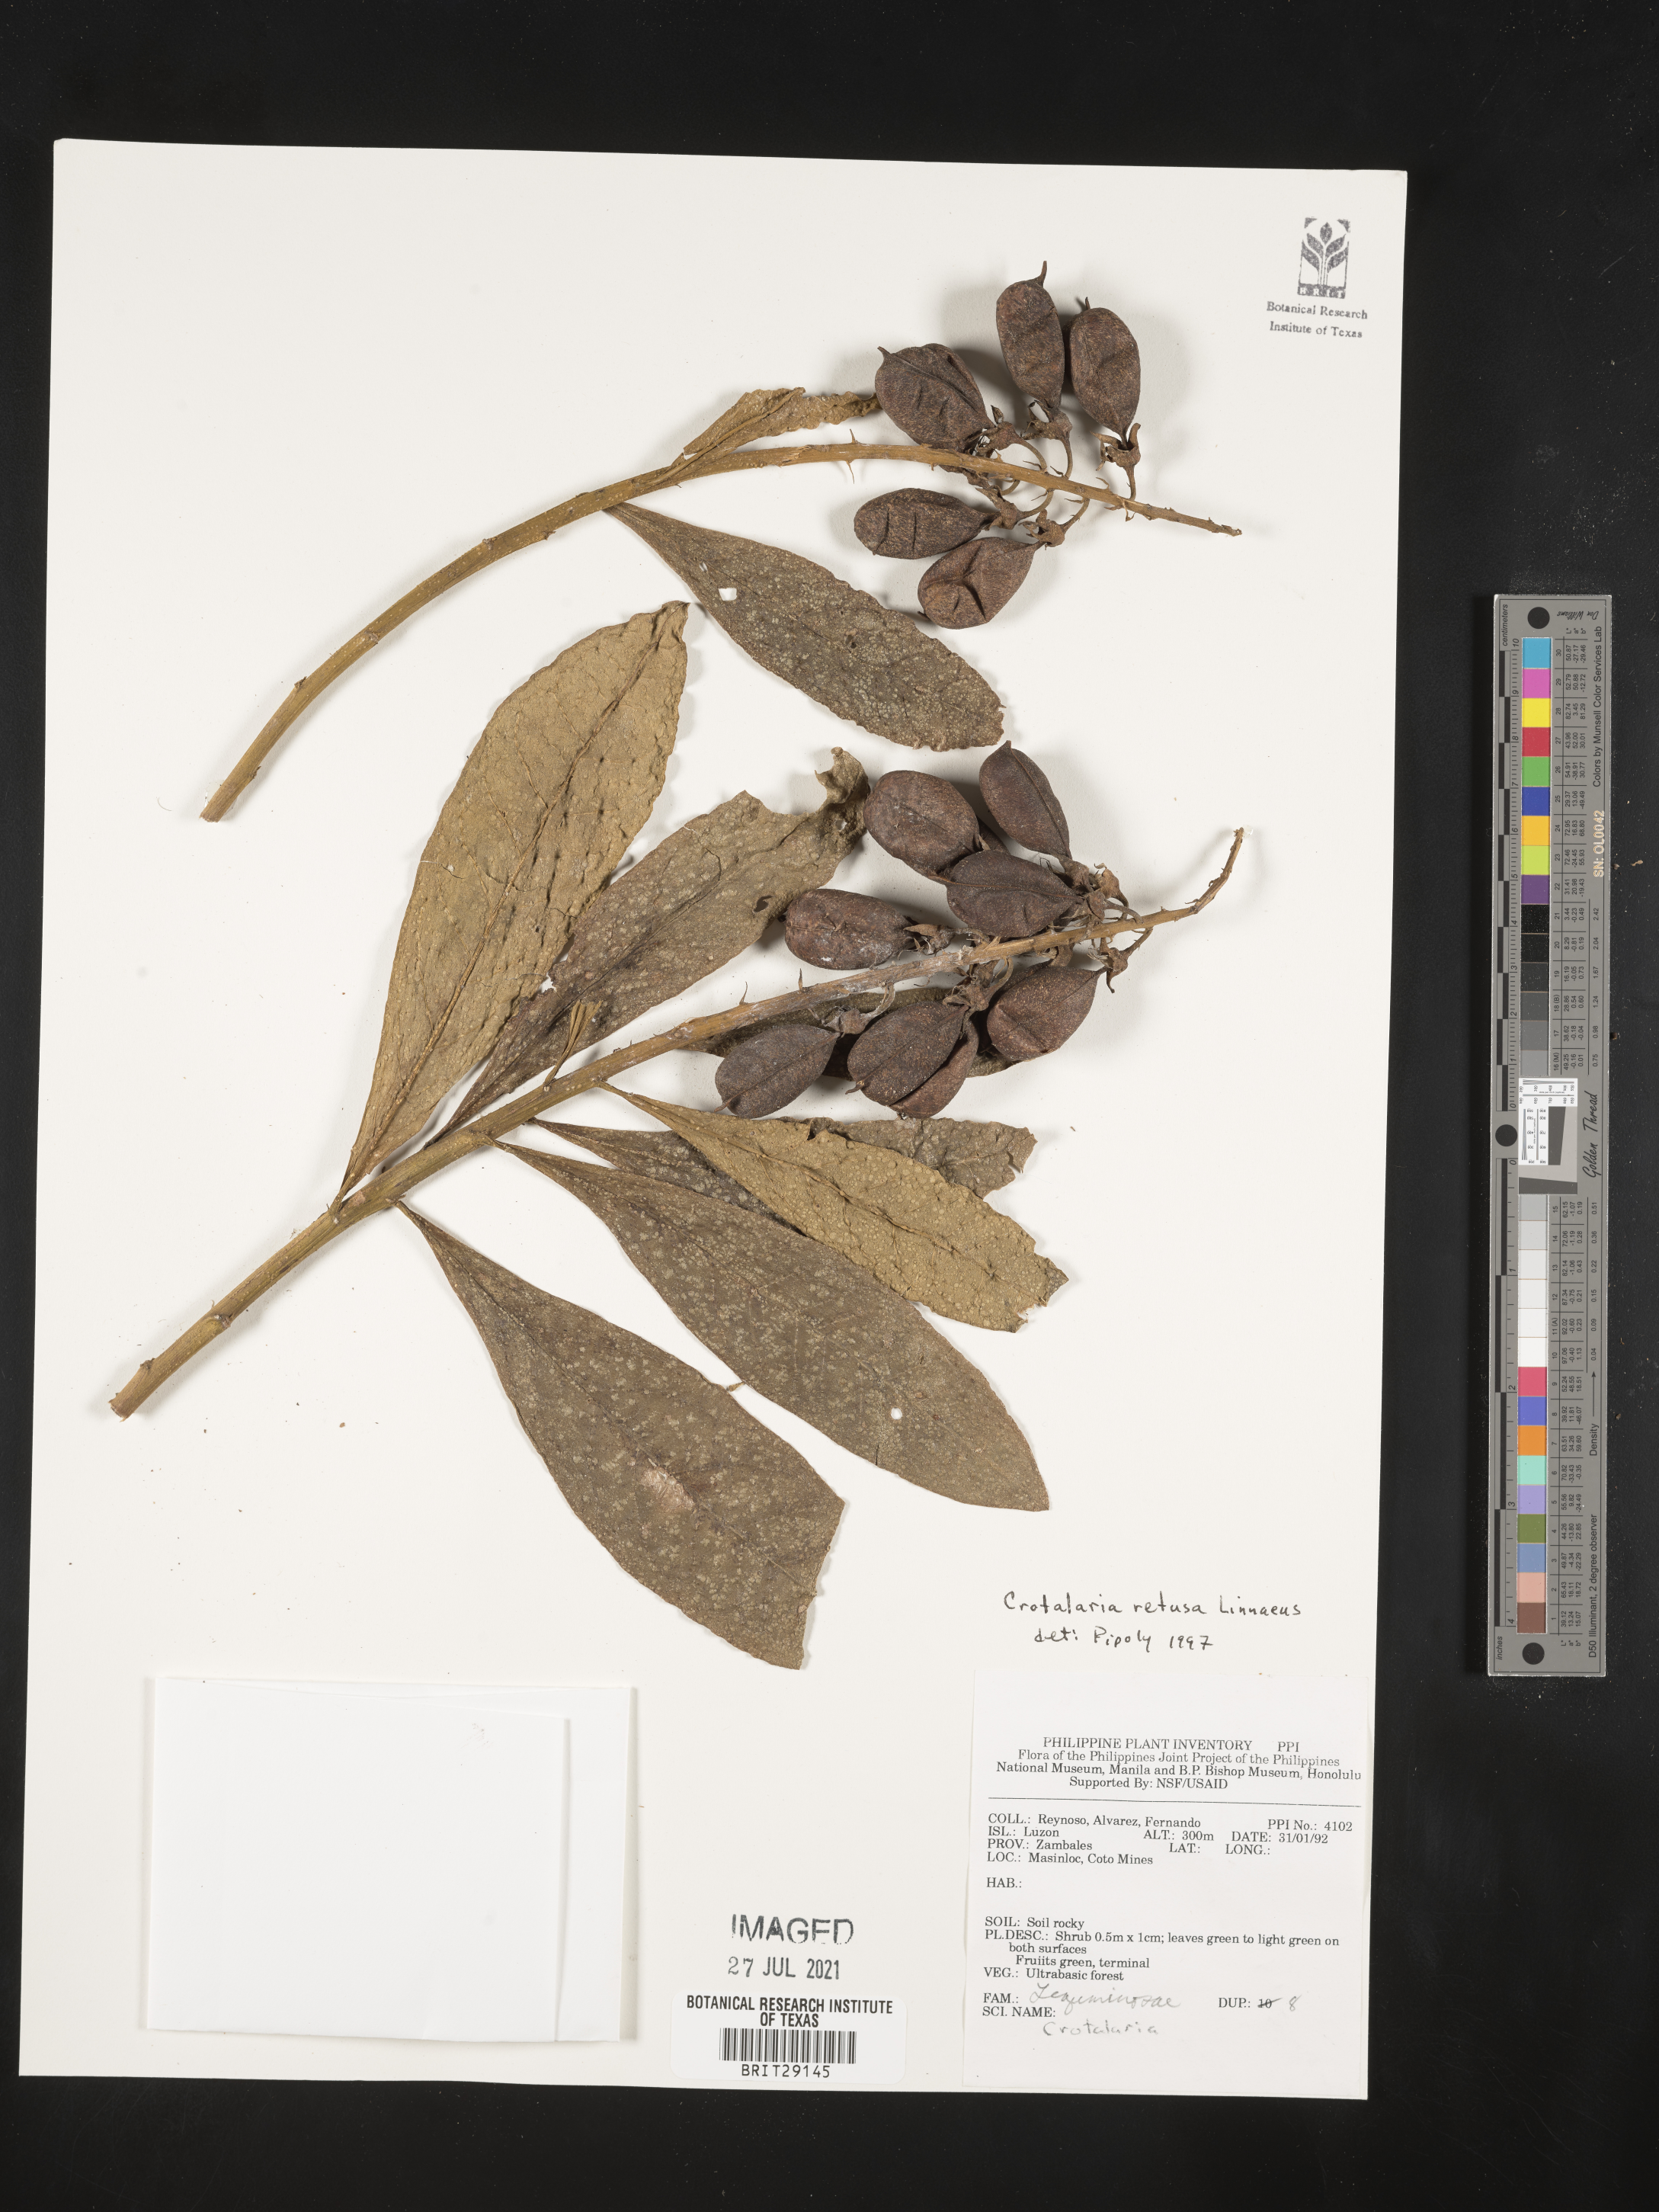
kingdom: Plantae
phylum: Tracheophyta
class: Magnoliopsida
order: Fabales
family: Fabaceae
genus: Crotalaria
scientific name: Crotalaria retusa
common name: Rattleweed
